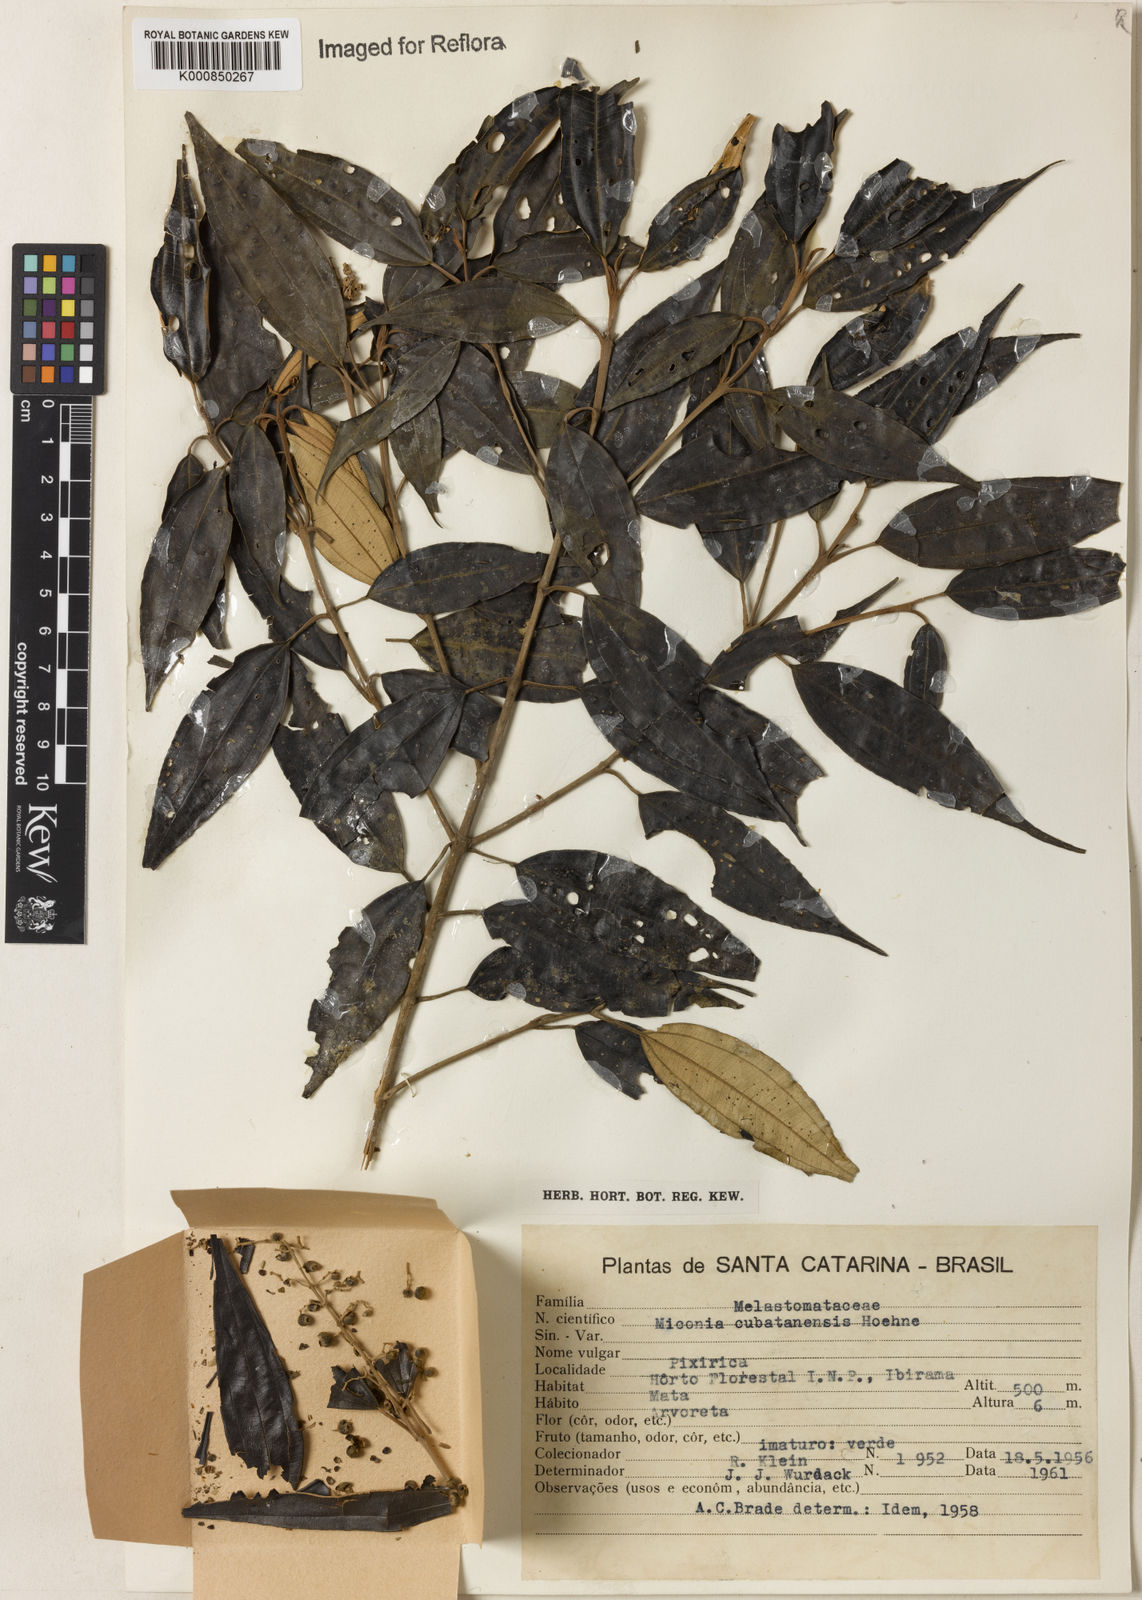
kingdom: Plantae
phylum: Tracheophyta
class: Magnoliopsida
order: Myrtales
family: Melastomataceae
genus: Miconia
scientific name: Miconia cubatanensis
